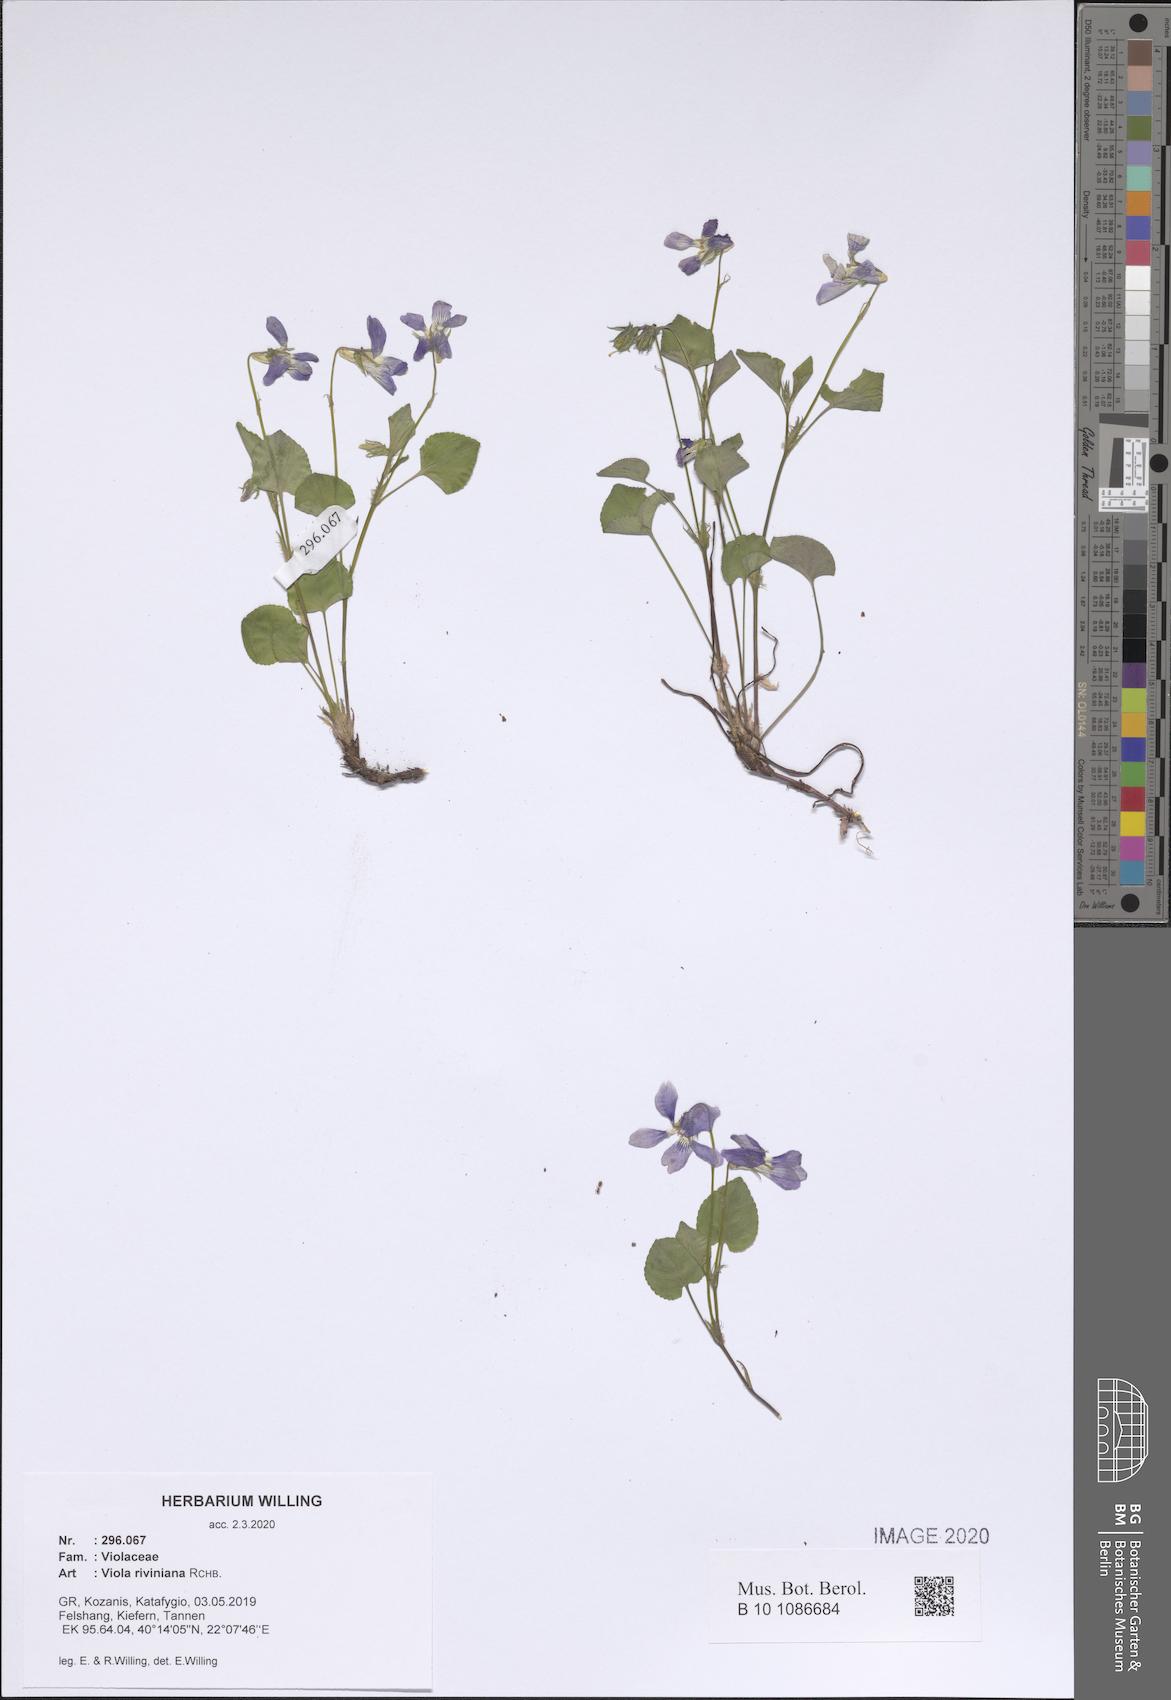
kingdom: Plantae
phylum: Tracheophyta
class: Magnoliopsida
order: Malpighiales
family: Violaceae
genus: Viola
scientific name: Viola riviniana
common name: Common dog-violet
